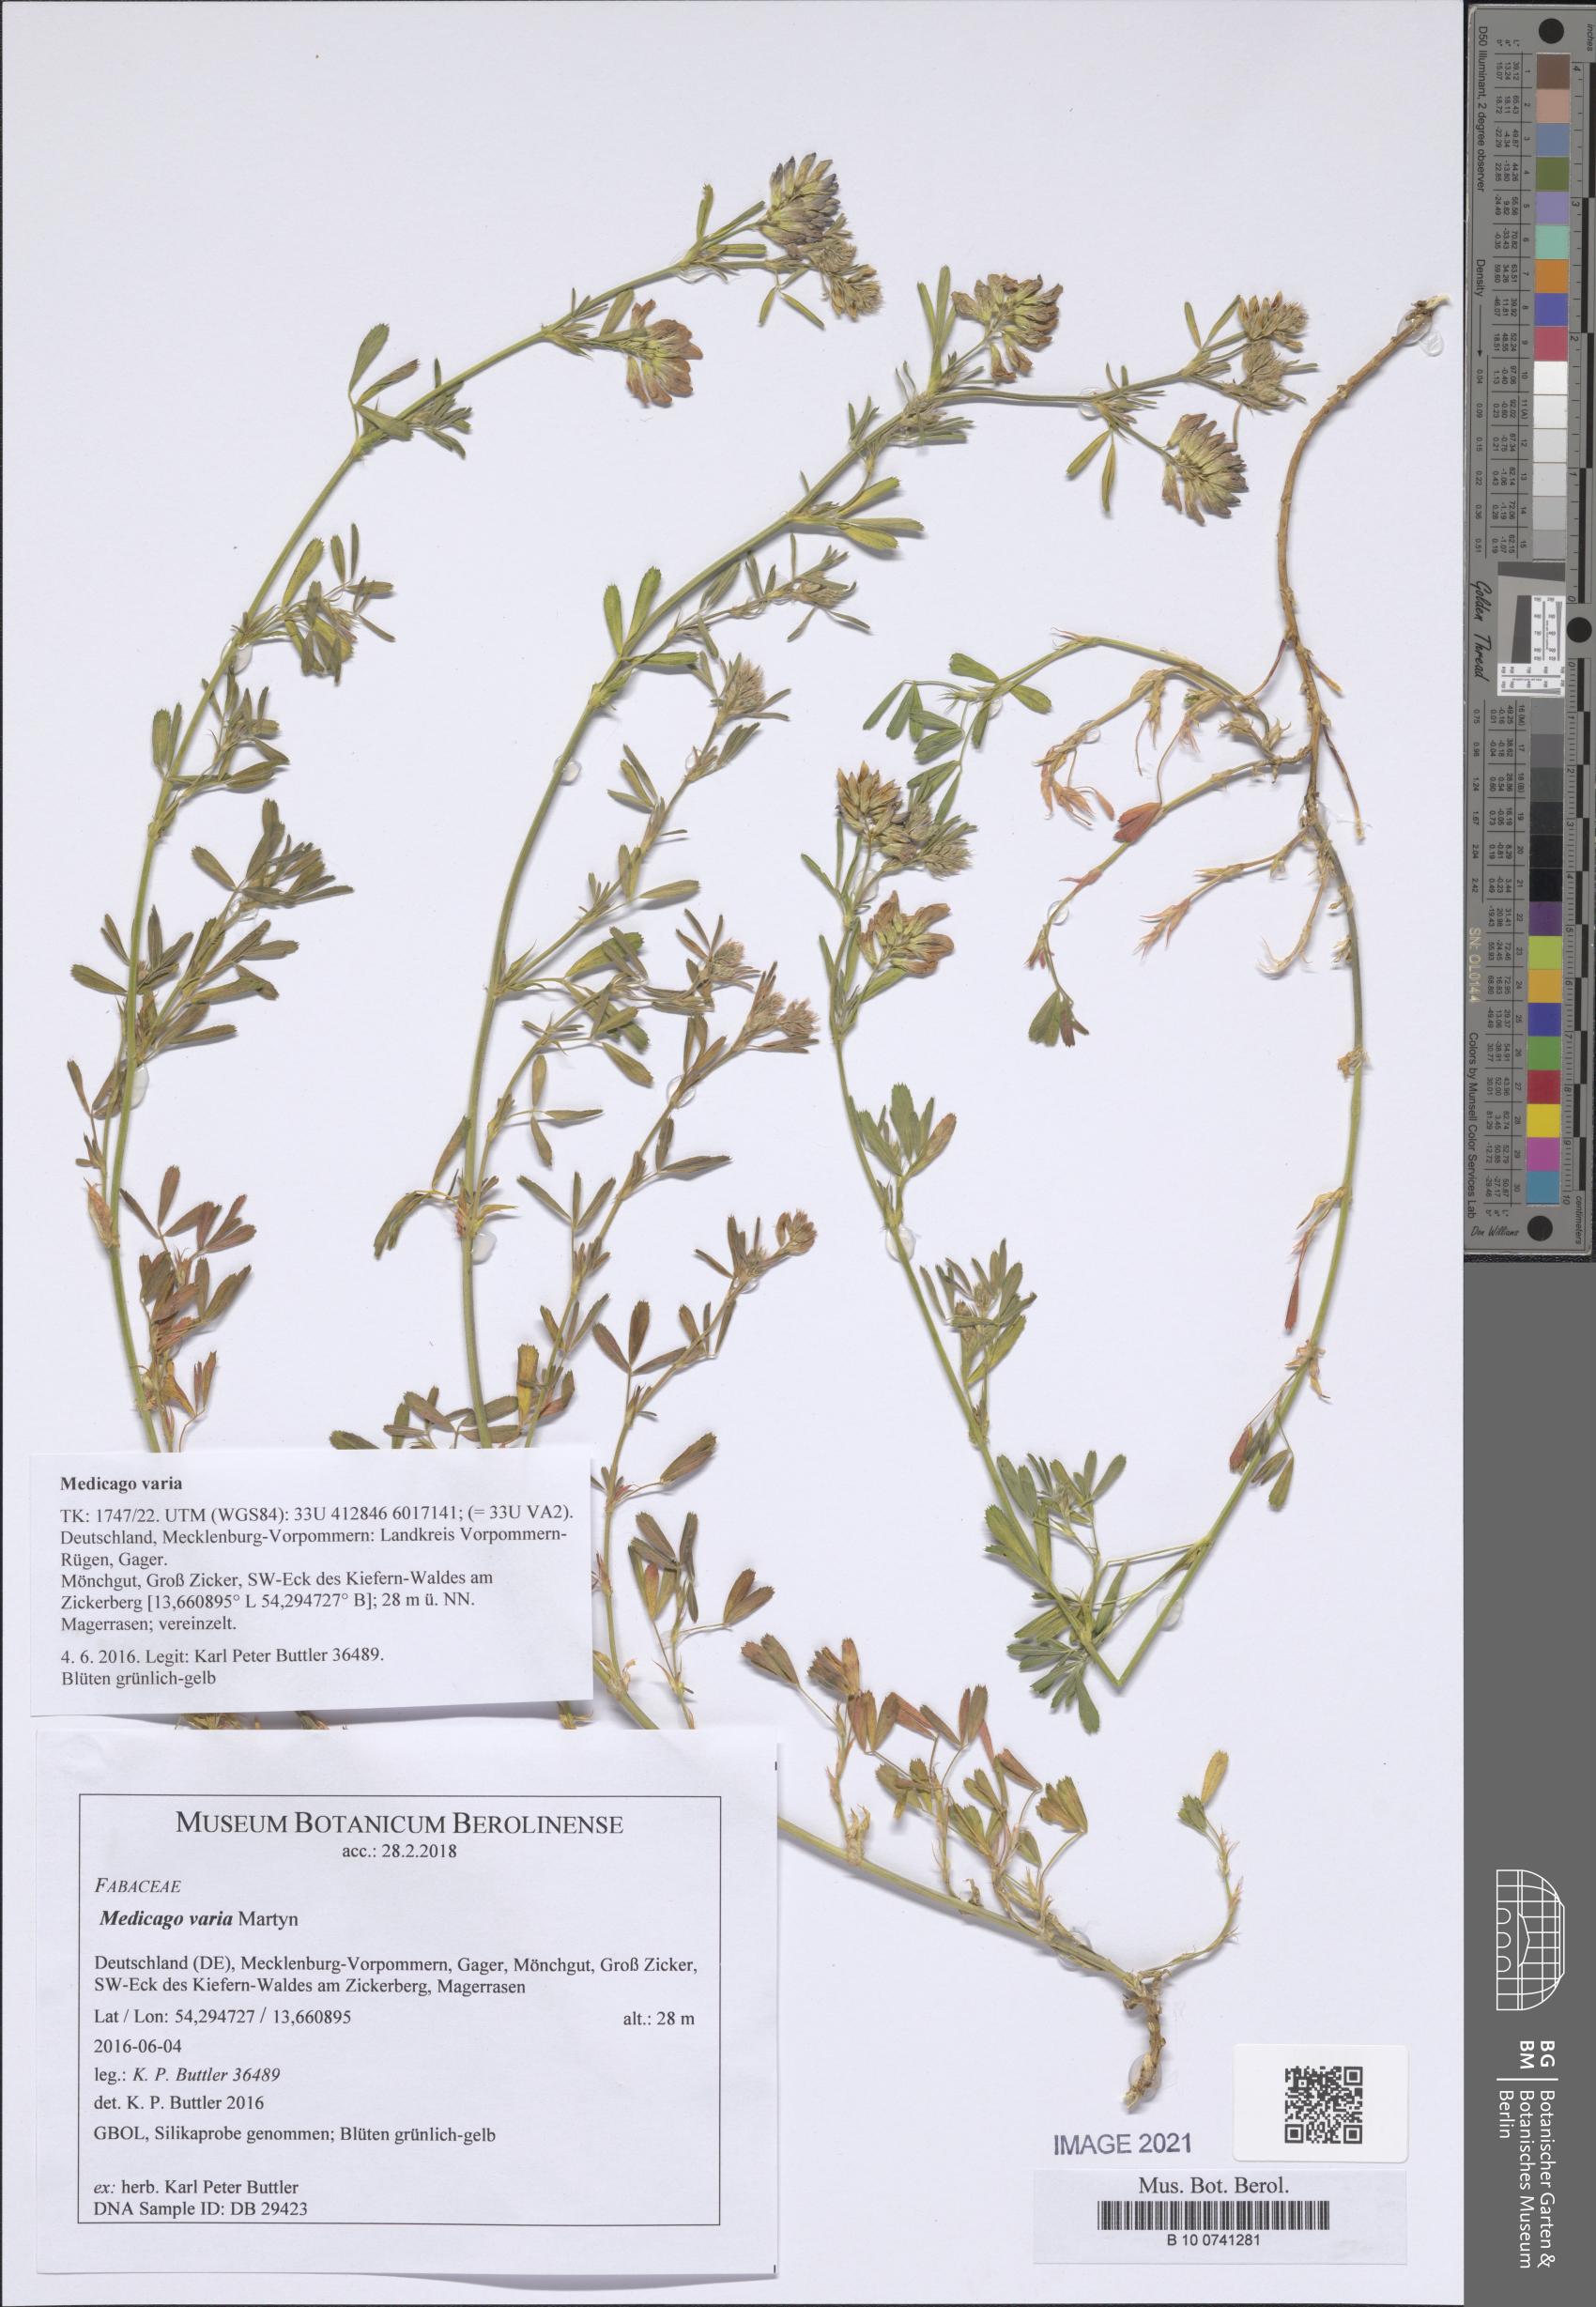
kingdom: Plantae
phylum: Tracheophyta
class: Magnoliopsida
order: Fabales
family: Fabaceae
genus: Medicago
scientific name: Medicago varia
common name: Sand lucerne
